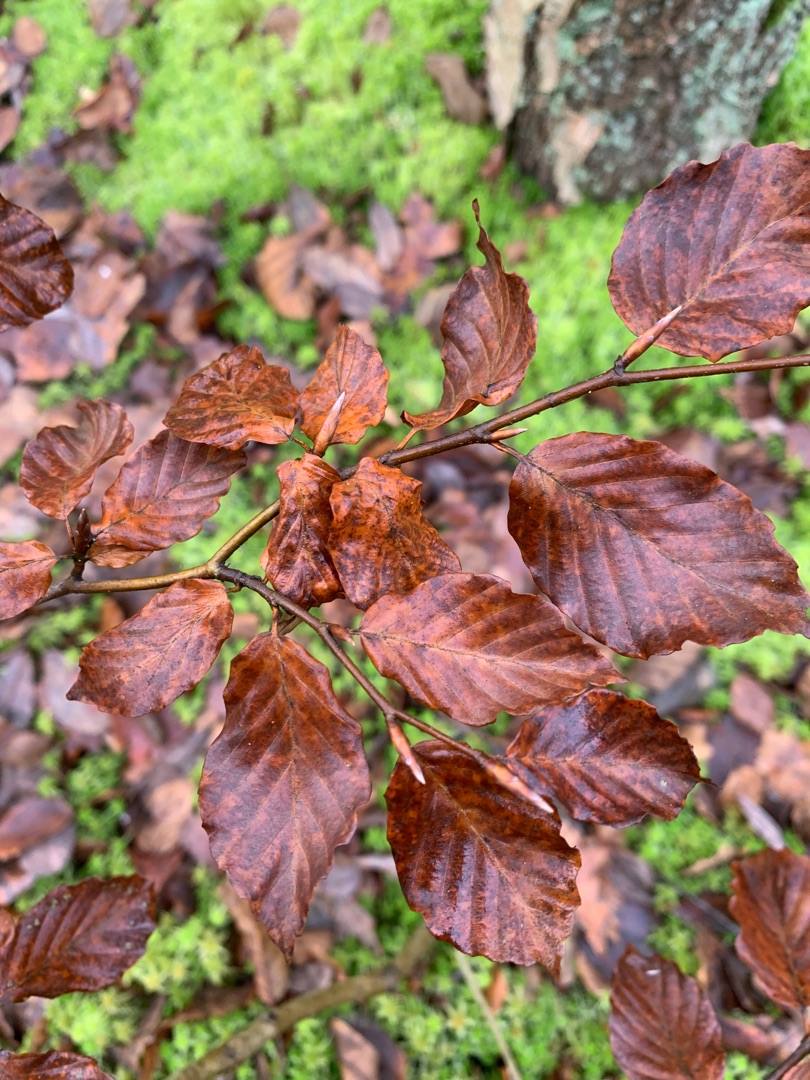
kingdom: Plantae
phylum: Tracheophyta
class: Magnoliopsida
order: Fagales
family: Fagaceae
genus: Fagus
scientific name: Fagus sylvatica
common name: Bøg
